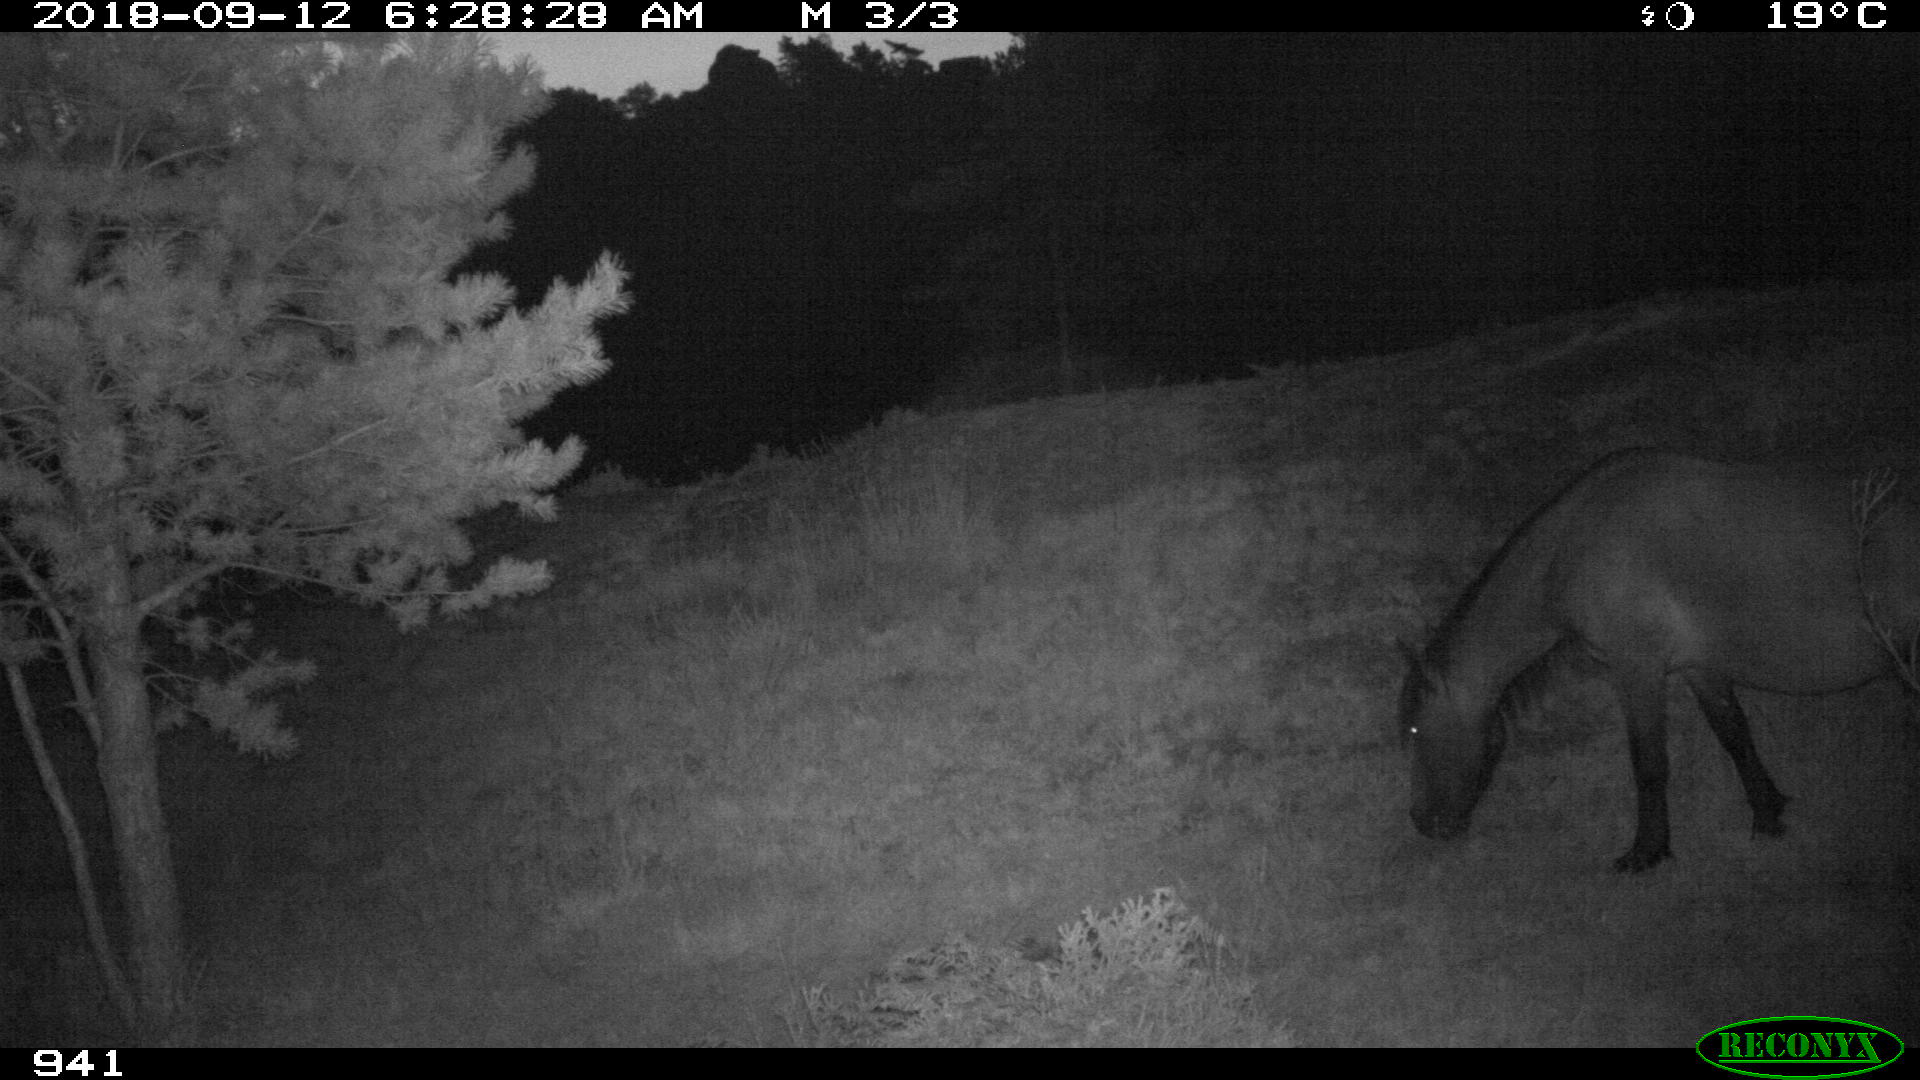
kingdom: Animalia
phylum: Chordata
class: Mammalia
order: Perissodactyla
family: Equidae
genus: Equus
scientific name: Equus caballus
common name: Horse
